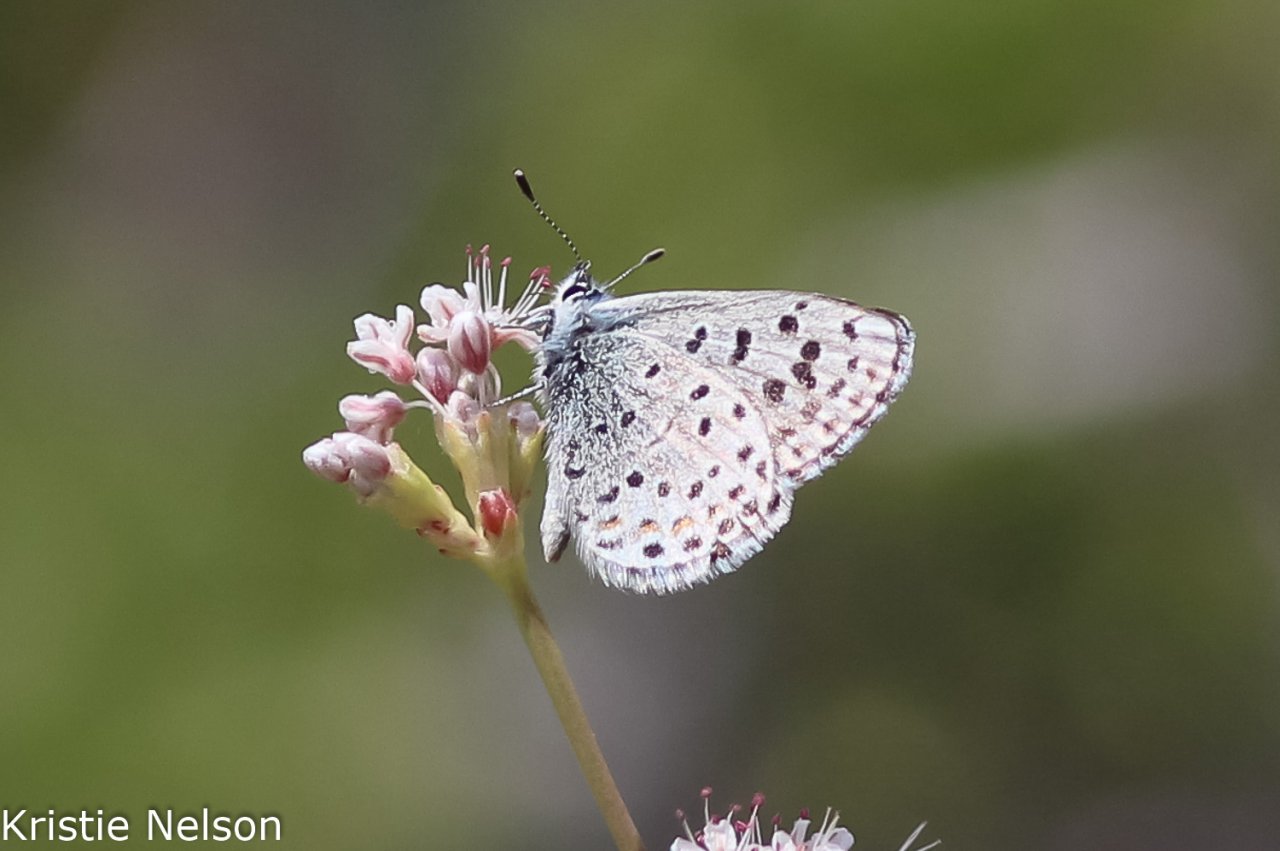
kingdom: Animalia
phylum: Arthropoda
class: Insecta
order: Lepidoptera
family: Lycaenidae
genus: Euphilotes
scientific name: Euphilotes enoptes
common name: Dotted Blue
